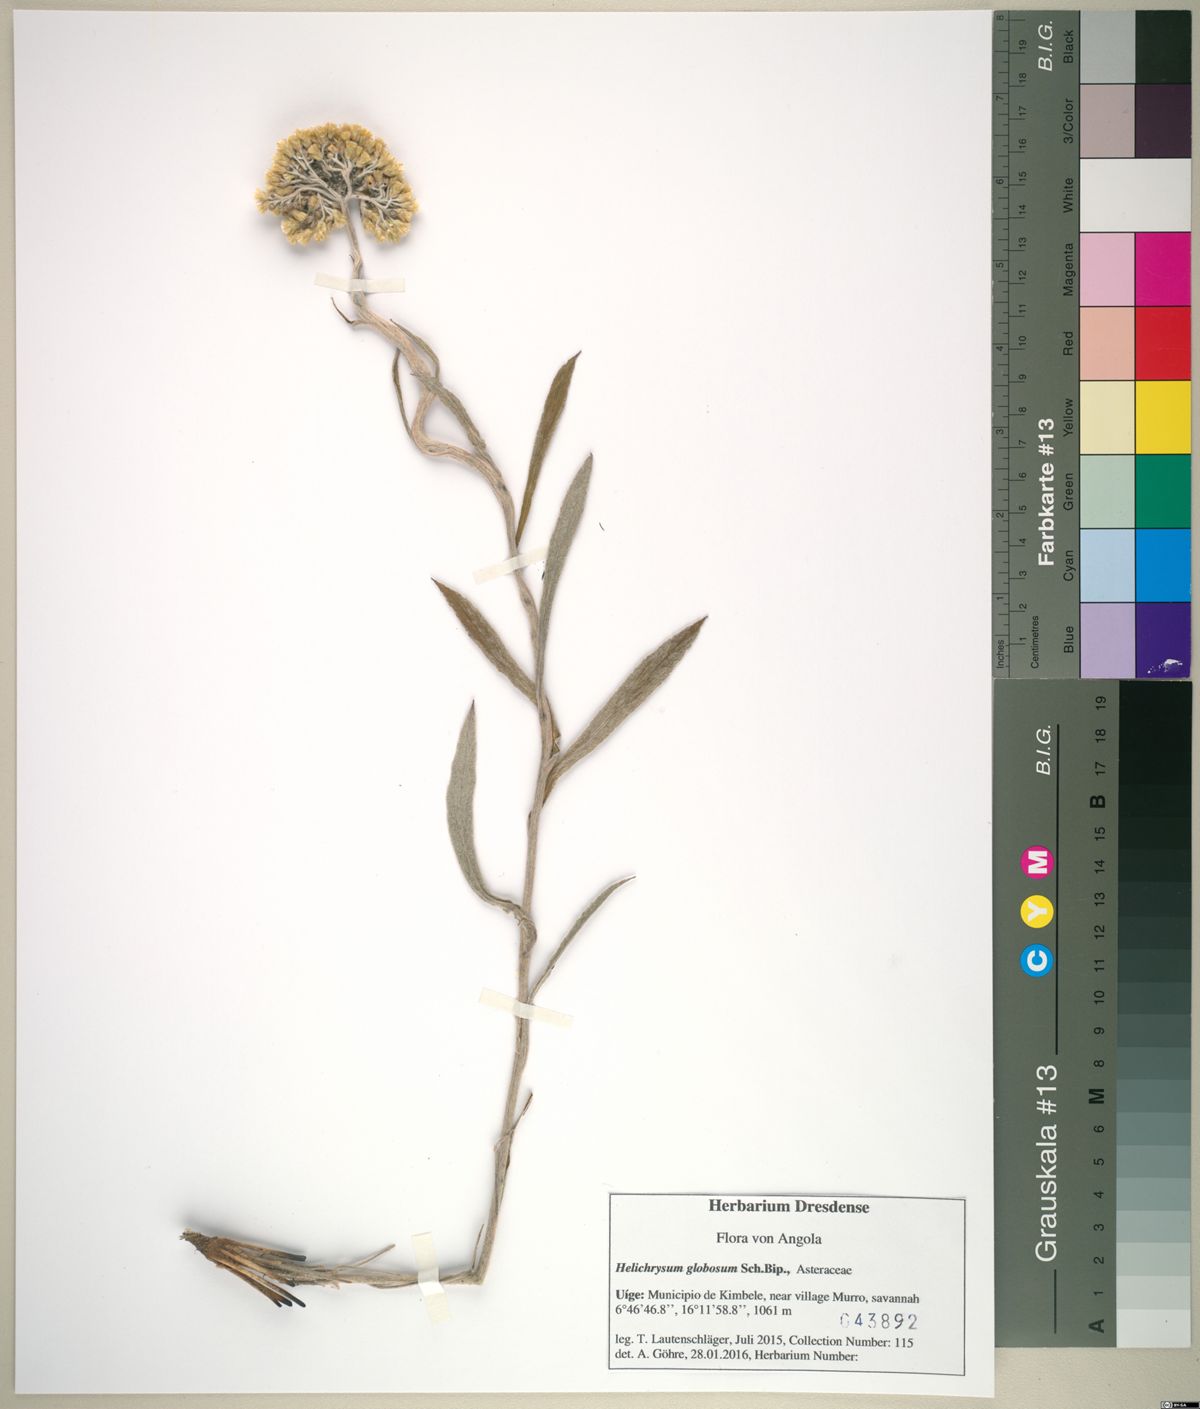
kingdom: Plantae
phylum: Tracheophyta
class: Magnoliopsida
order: Asterales
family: Asteraceae
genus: Helichrysum
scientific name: Helichrysum globosum
